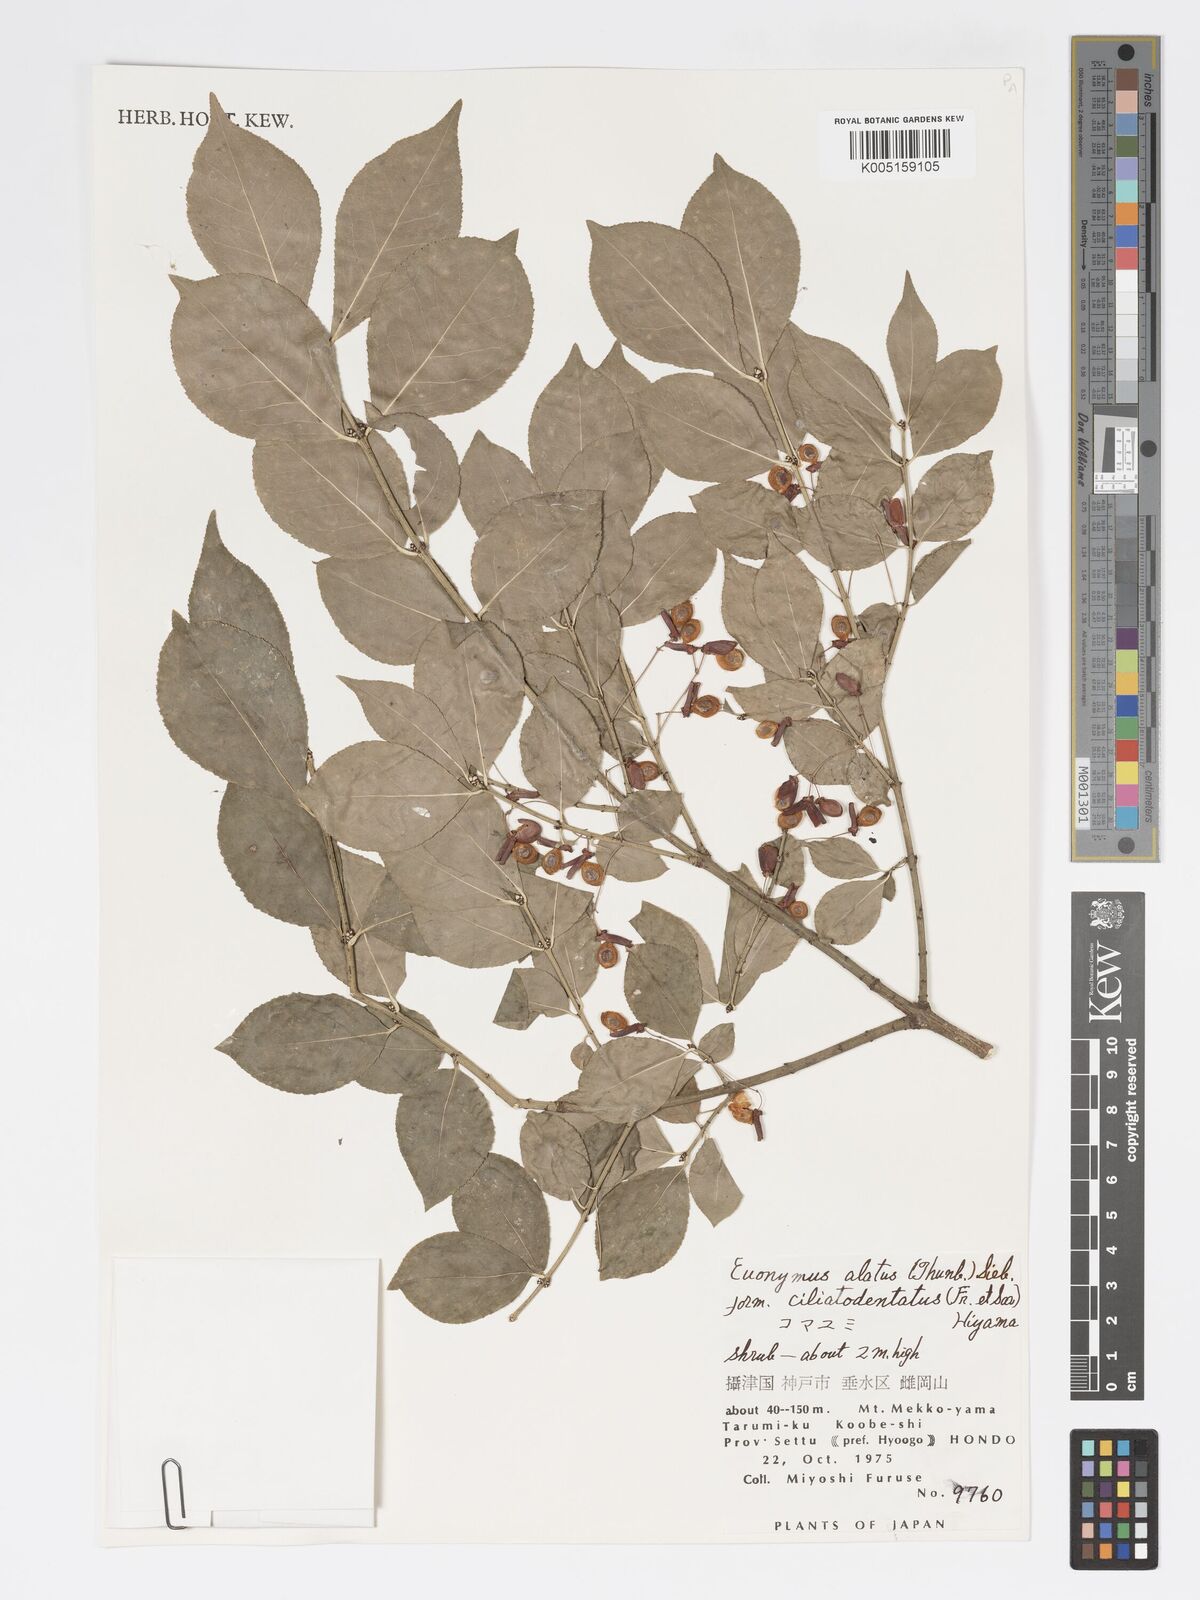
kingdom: Plantae
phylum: Tracheophyta
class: Magnoliopsida
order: Celastrales
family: Celastraceae
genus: Euonymus
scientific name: Euonymus
